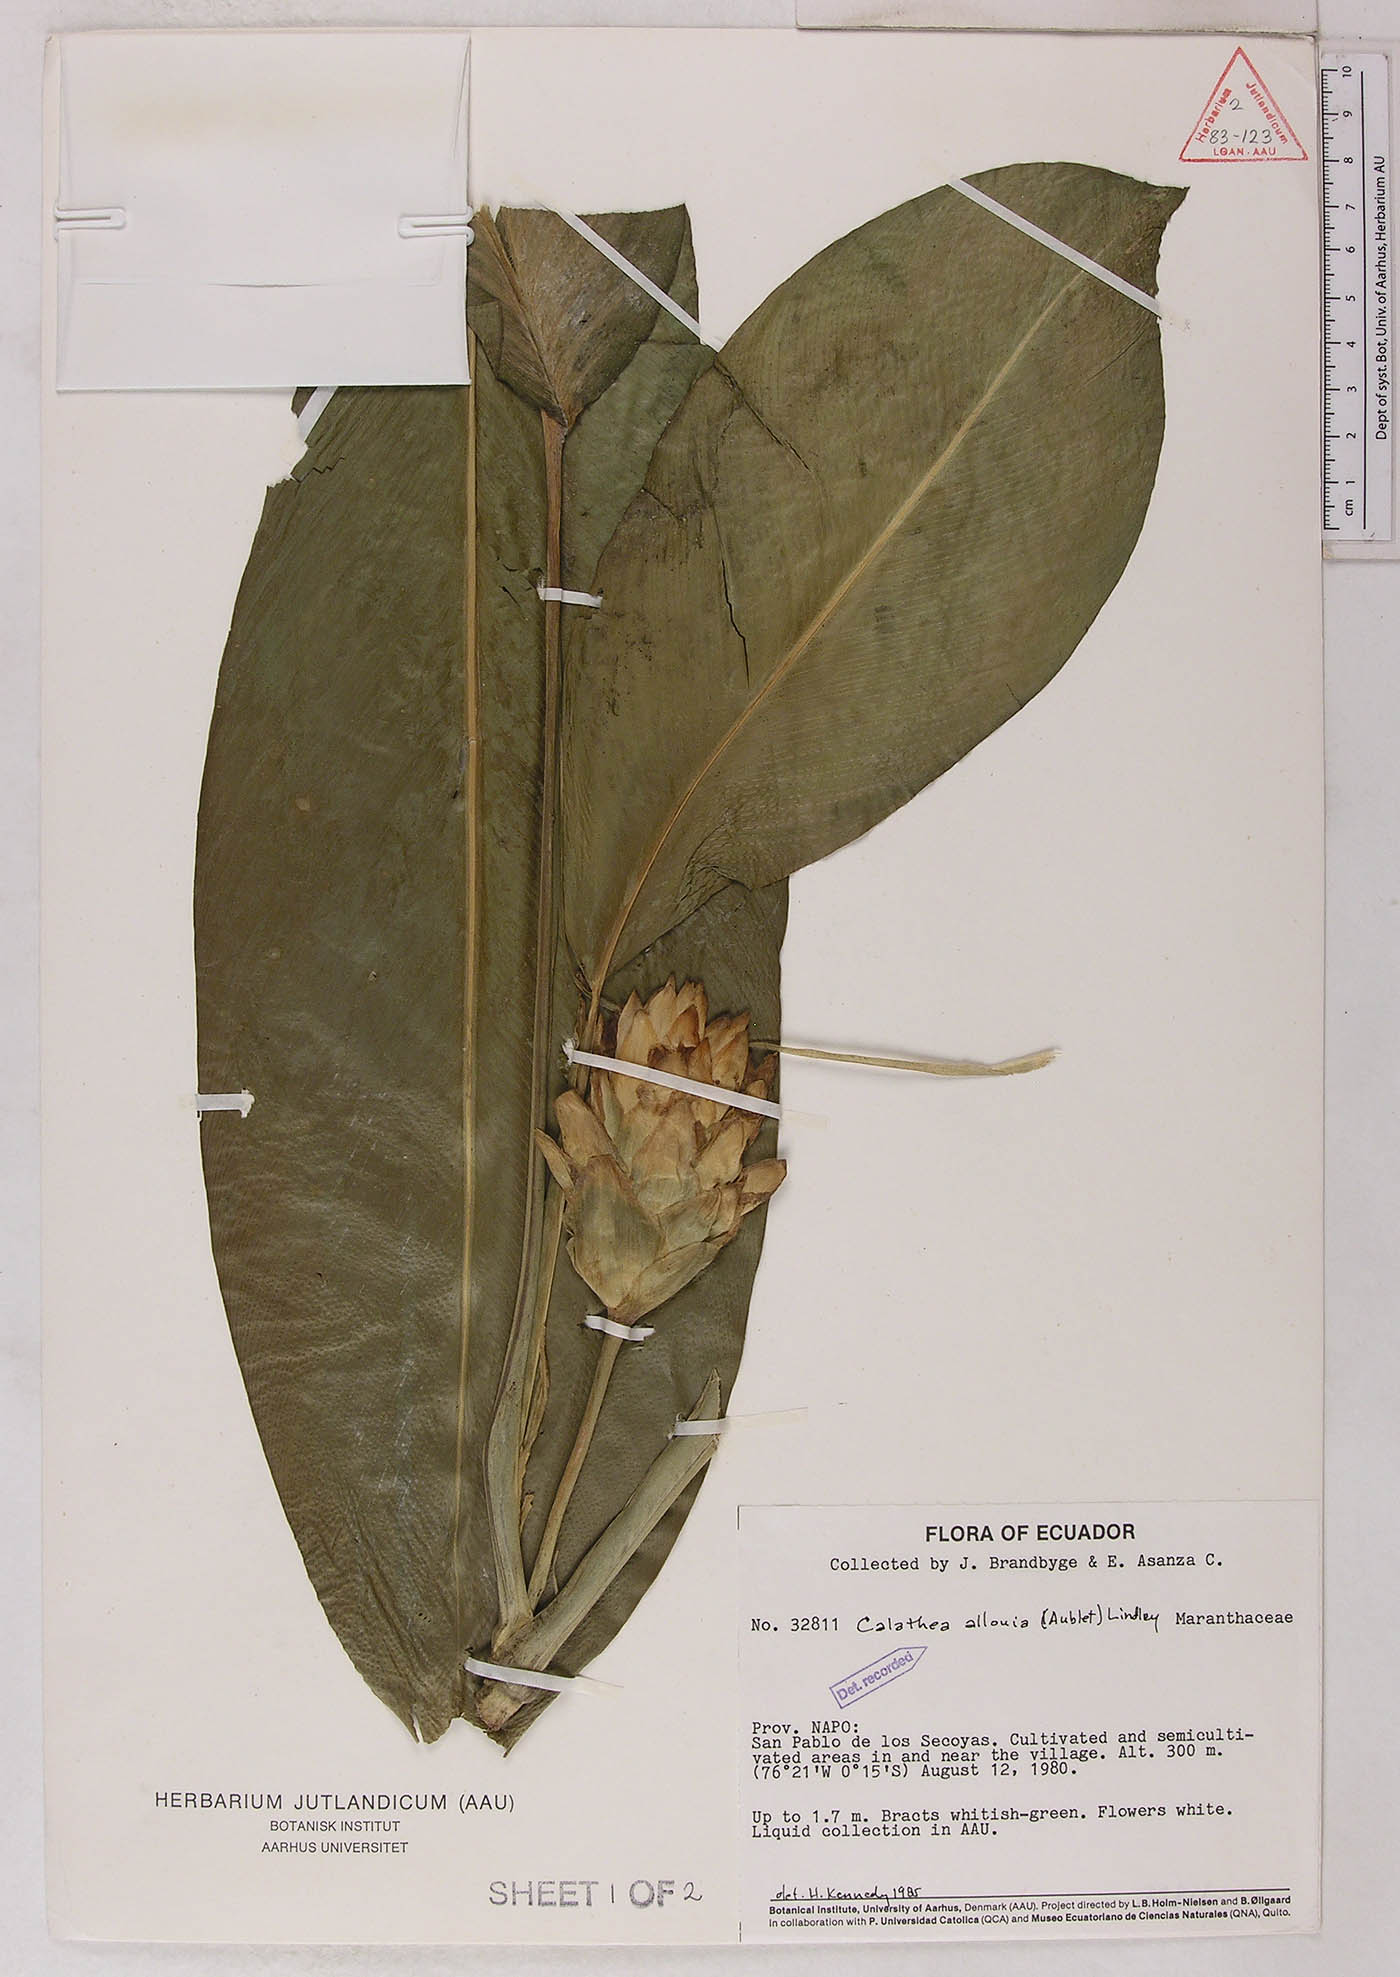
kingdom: Plantae
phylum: Tracheophyta
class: Liliopsida
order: Zingiberales
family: Marantaceae
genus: Goeppertia
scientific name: Goeppertia allouia
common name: Sweet corn-tuber
